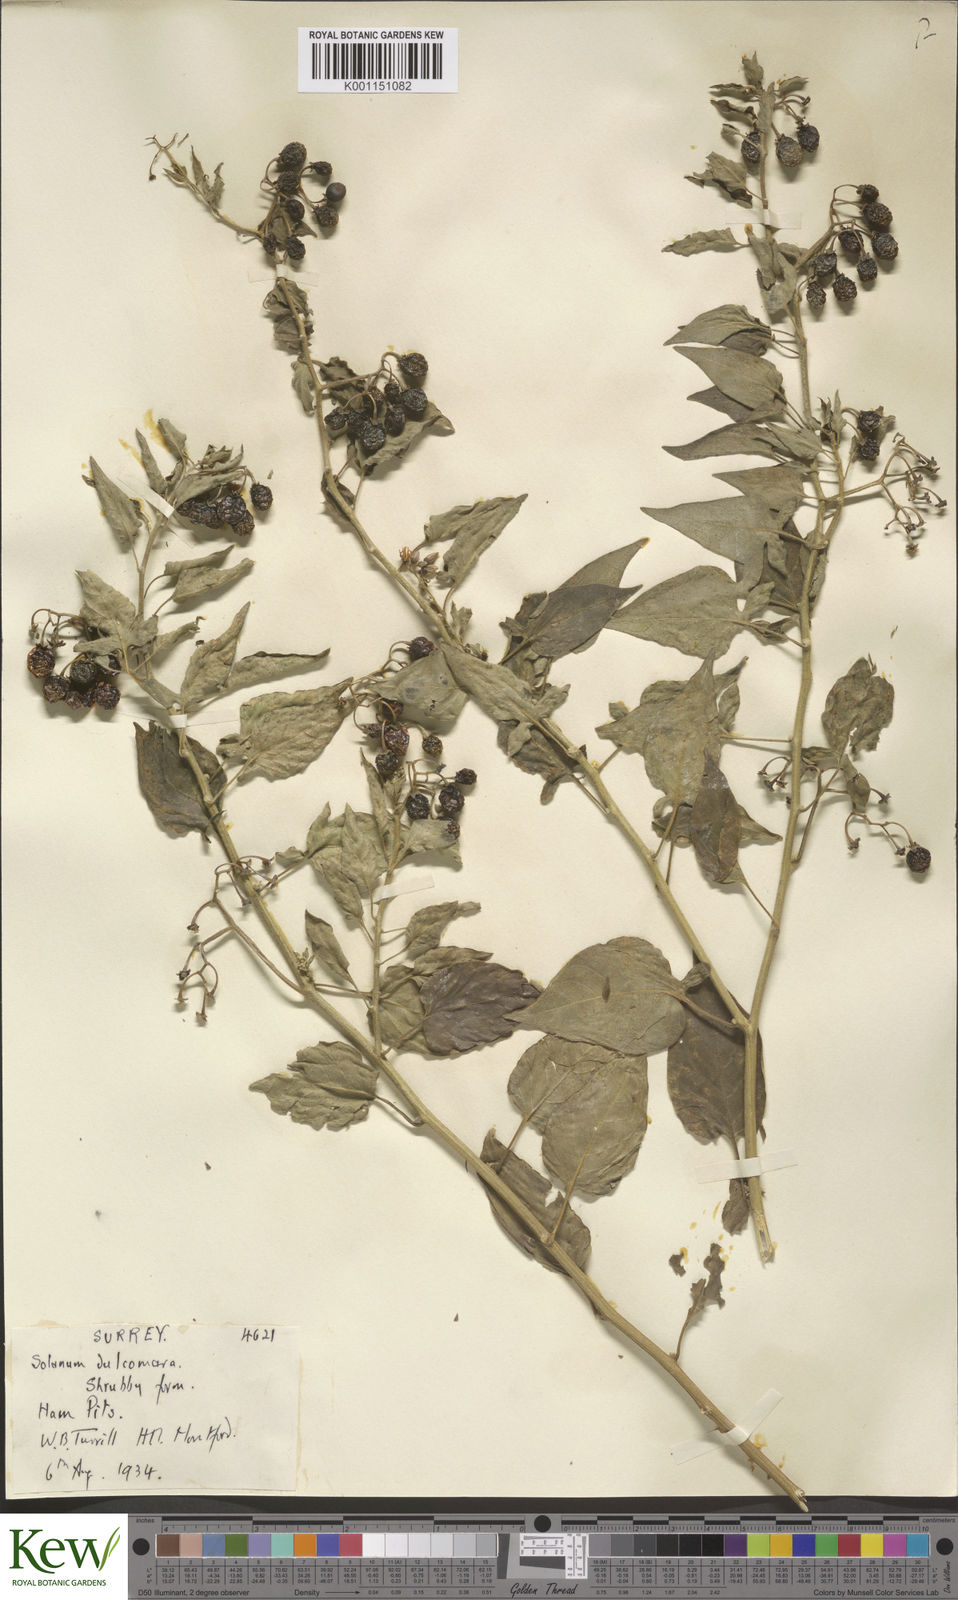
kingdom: Plantae
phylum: Tracheophyta
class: Magnoliopsida
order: Solanales
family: Solanaceae
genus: Solanum
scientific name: Solanum dulcamara
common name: Climbing nightshade
